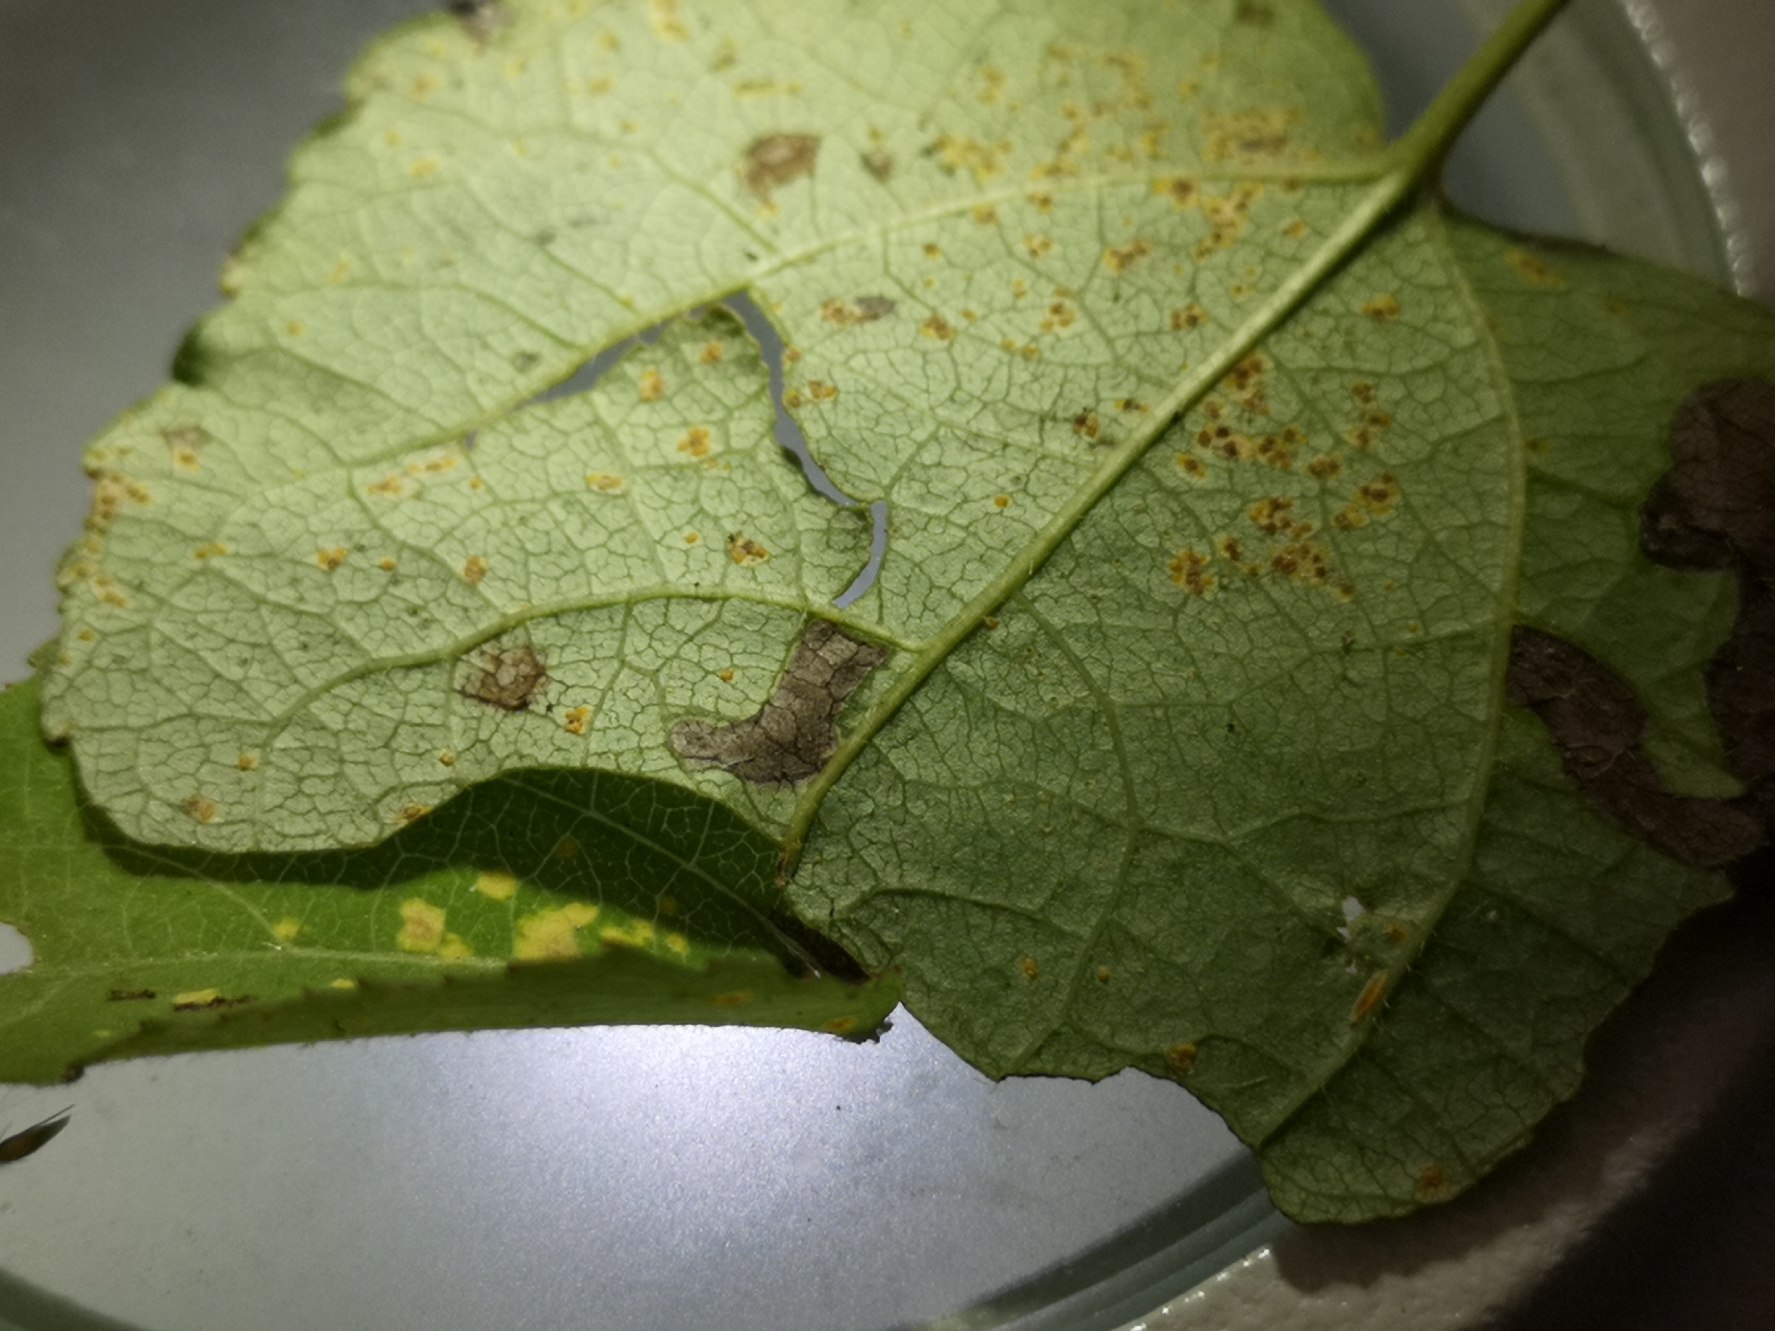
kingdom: Fungi
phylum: Basidiomycota
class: Pucciniomycetes
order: Pucciniales
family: Melampsoraceae
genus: Melampsora
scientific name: Melampsora populnea
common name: Poppel-skorperust
